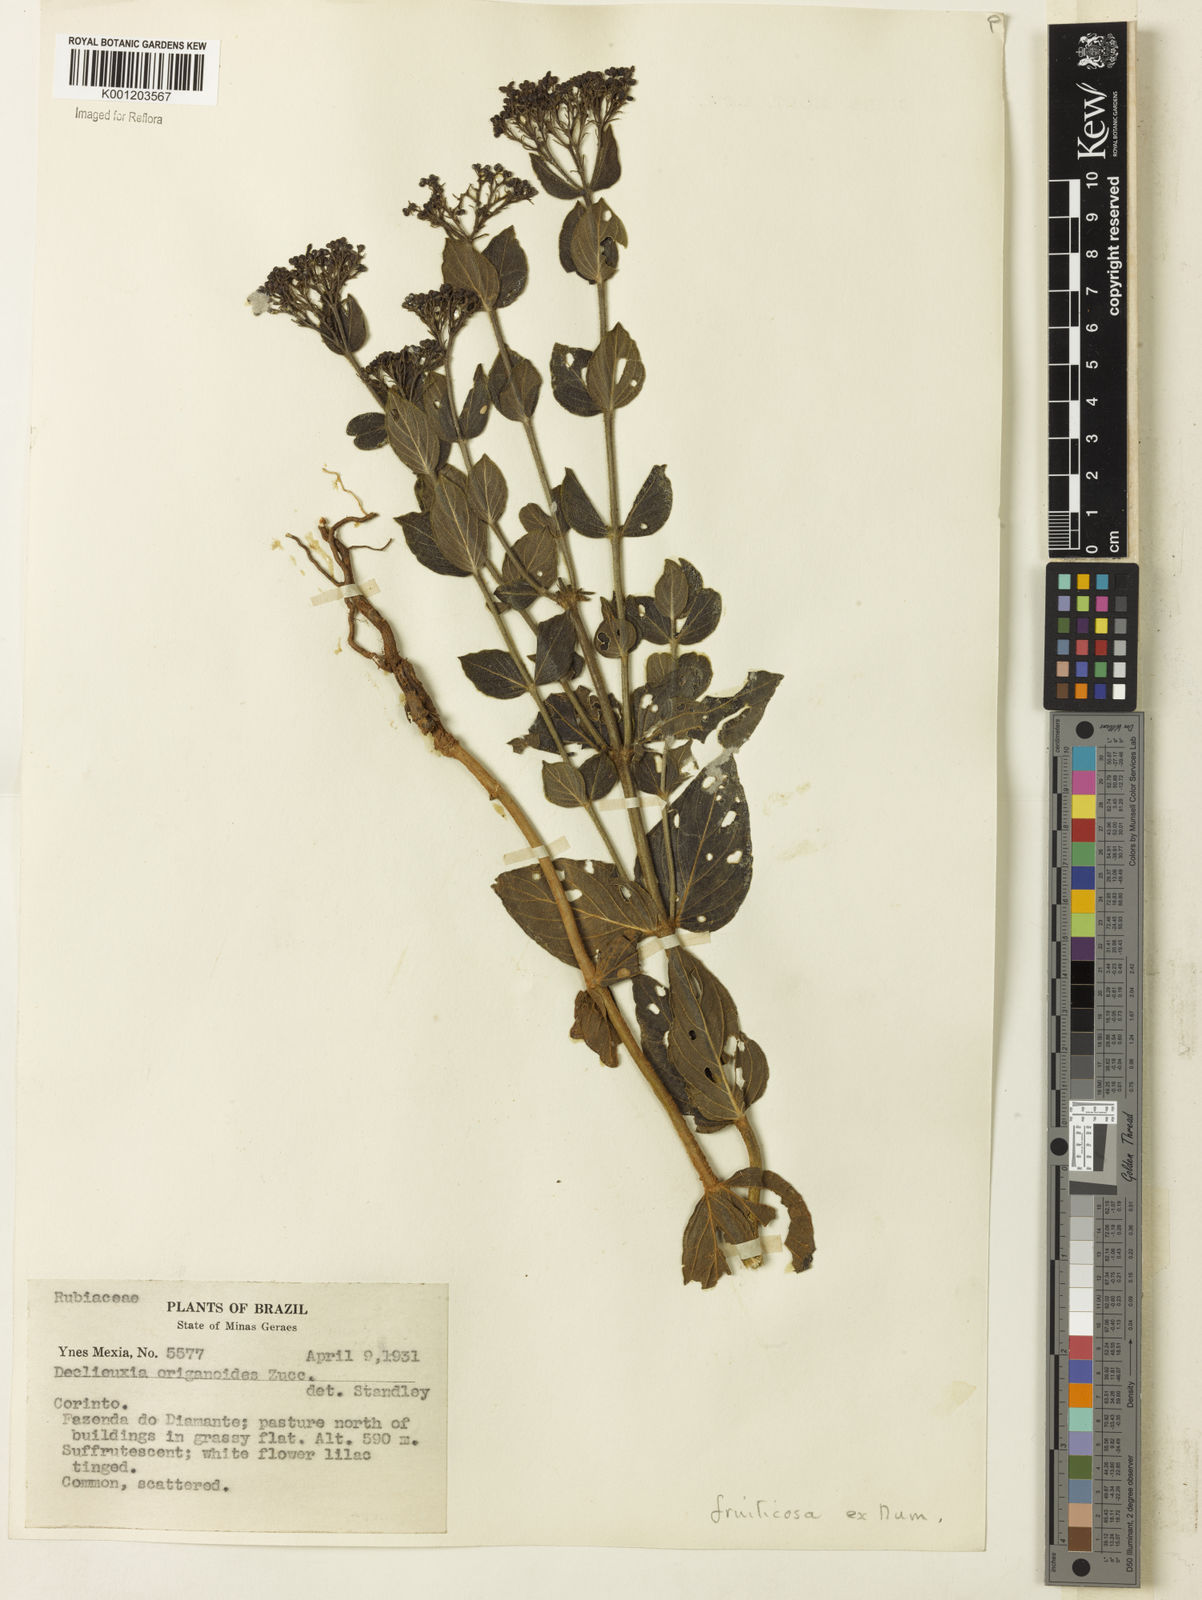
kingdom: Plantae
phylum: Tracheophyta
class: Magnoliopsida
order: Gentianales
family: Rubiaceae
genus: Declieuxia
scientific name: Declieuxia fruticosa
